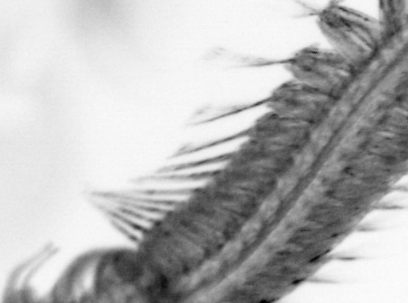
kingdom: Animalia
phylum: Annelida
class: Polychaeta
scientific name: Polychaeta
